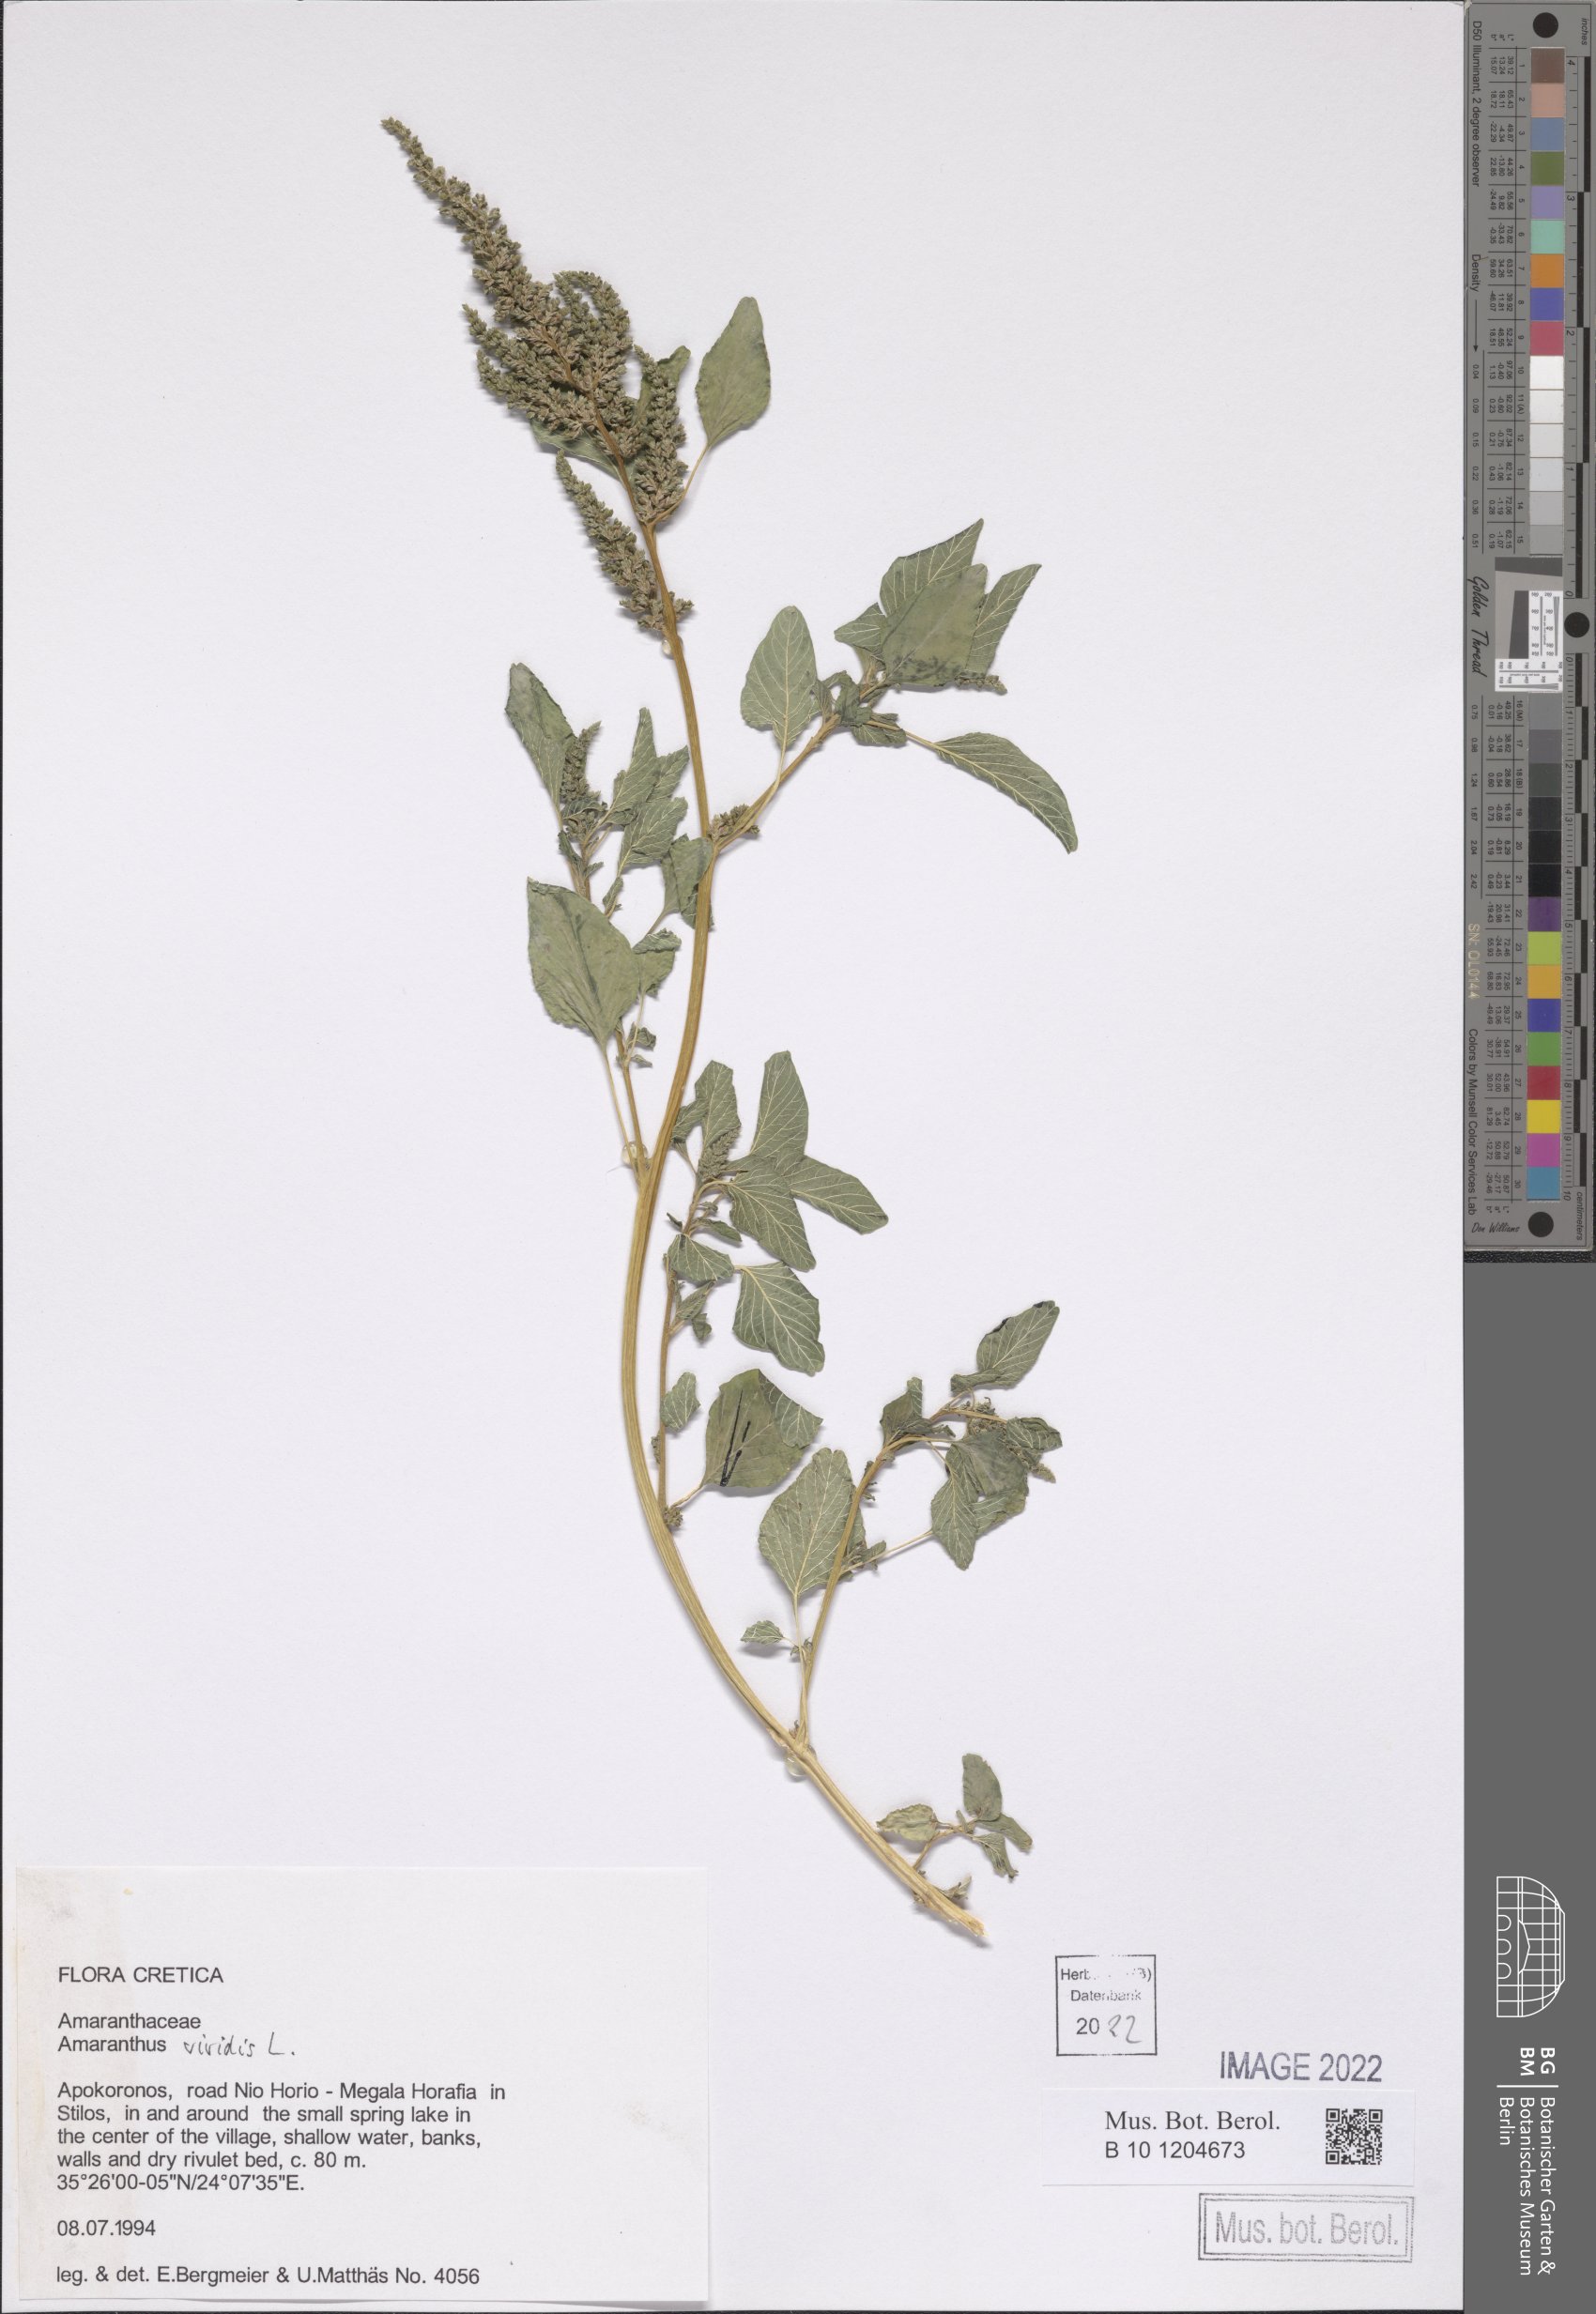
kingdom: Plantae
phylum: Tracheophyta
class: Magnoliopsida
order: Caryophyllales
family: Amaranthaceae
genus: Amaranthus
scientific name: Amaranthus viridis
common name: Slender amaranth
